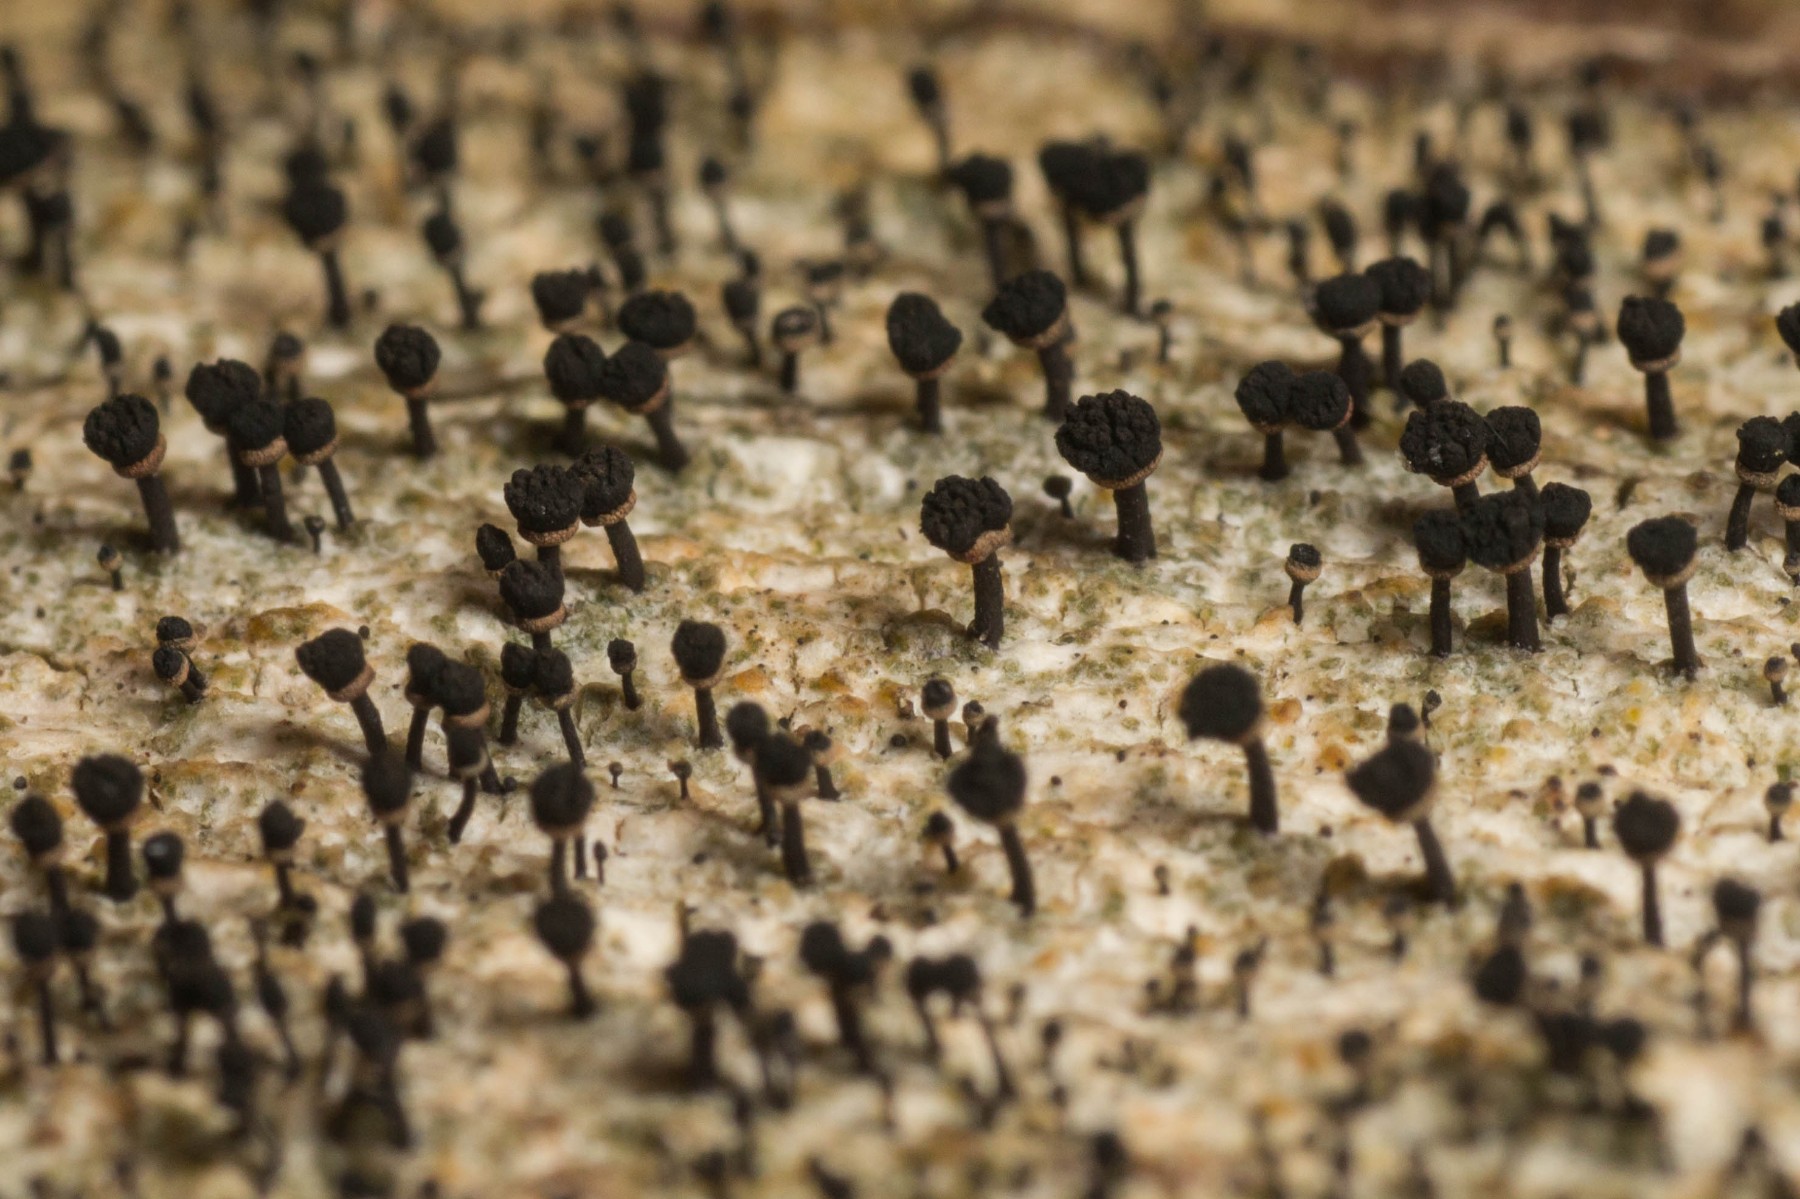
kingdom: Fungi
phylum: Ascomycota
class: Lecanoromycetes
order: Caliciales
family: Caliciaceae
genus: Calicium
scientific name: Calicium salicinum
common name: persoons nålelav
